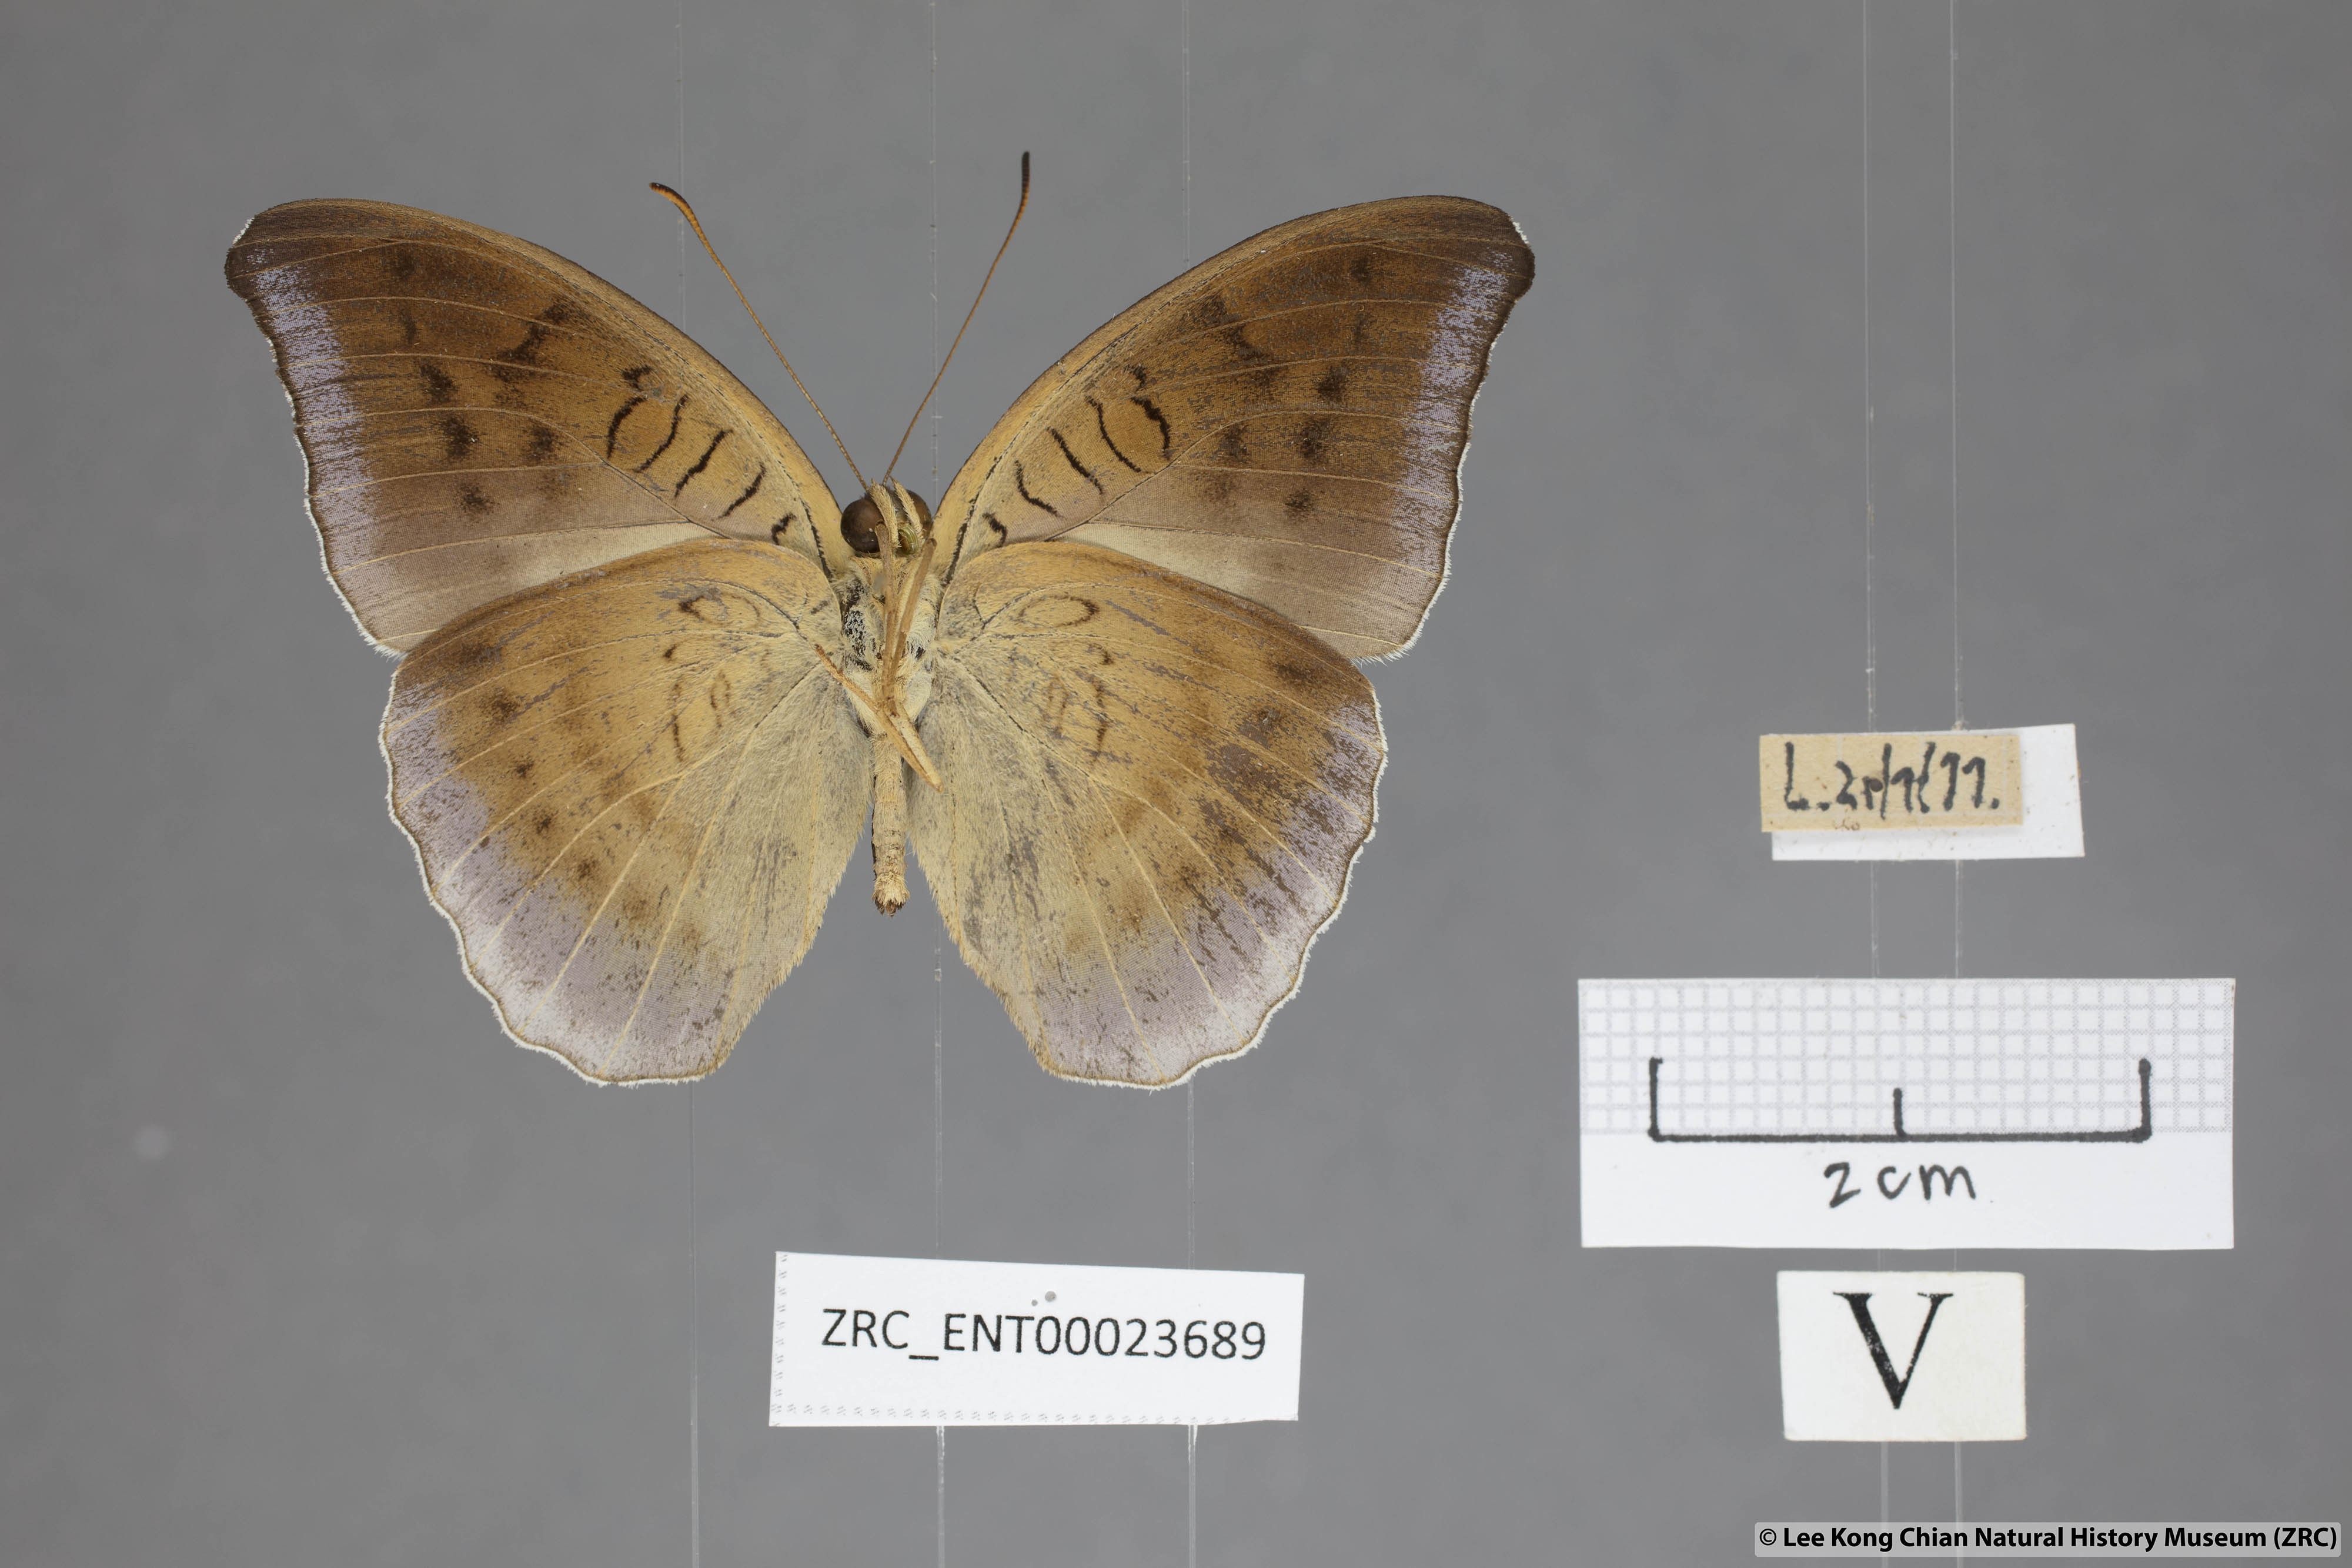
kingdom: Animalia
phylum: Arthropoda
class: Insecta
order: Lepidoptera
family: Nymphalidae
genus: Tanaecia
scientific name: Tanaecia flora
